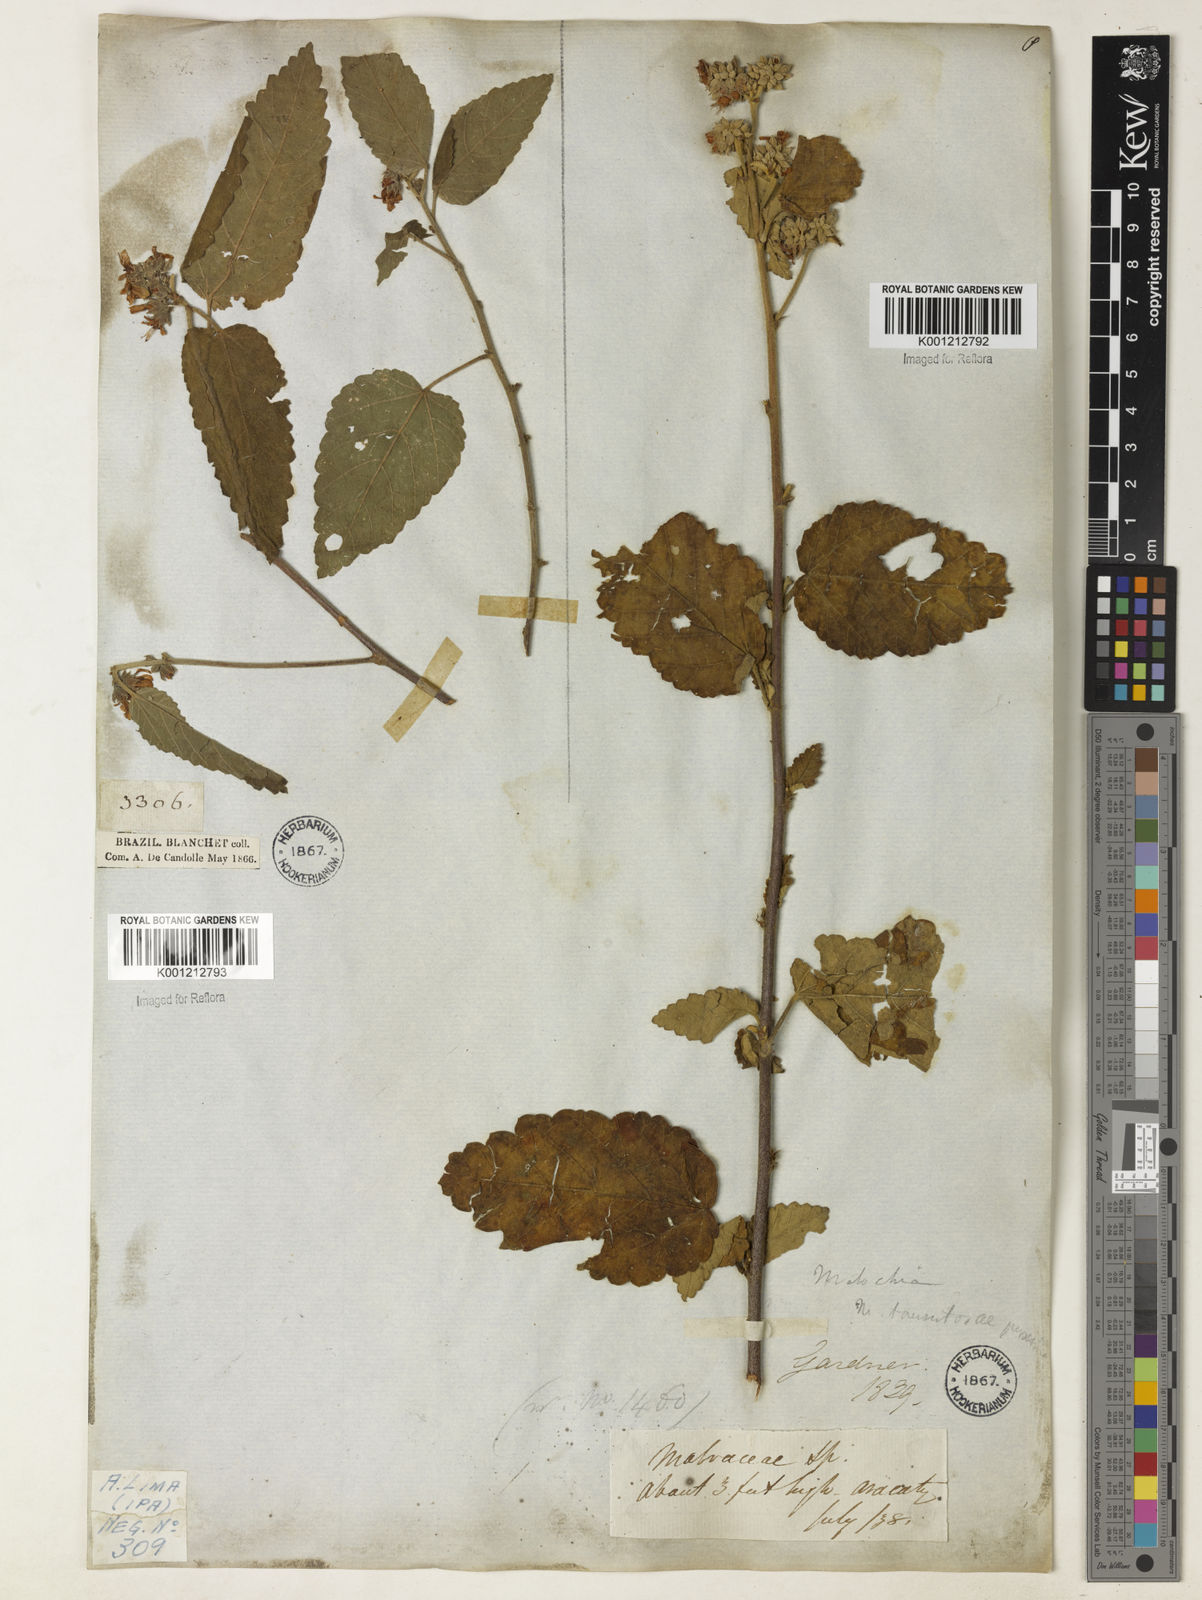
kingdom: Plantae
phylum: Tracheophyta
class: Magnoliopsida
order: Malvales
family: Malvaceae
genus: Melochia
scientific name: Melochia betonicifolia
